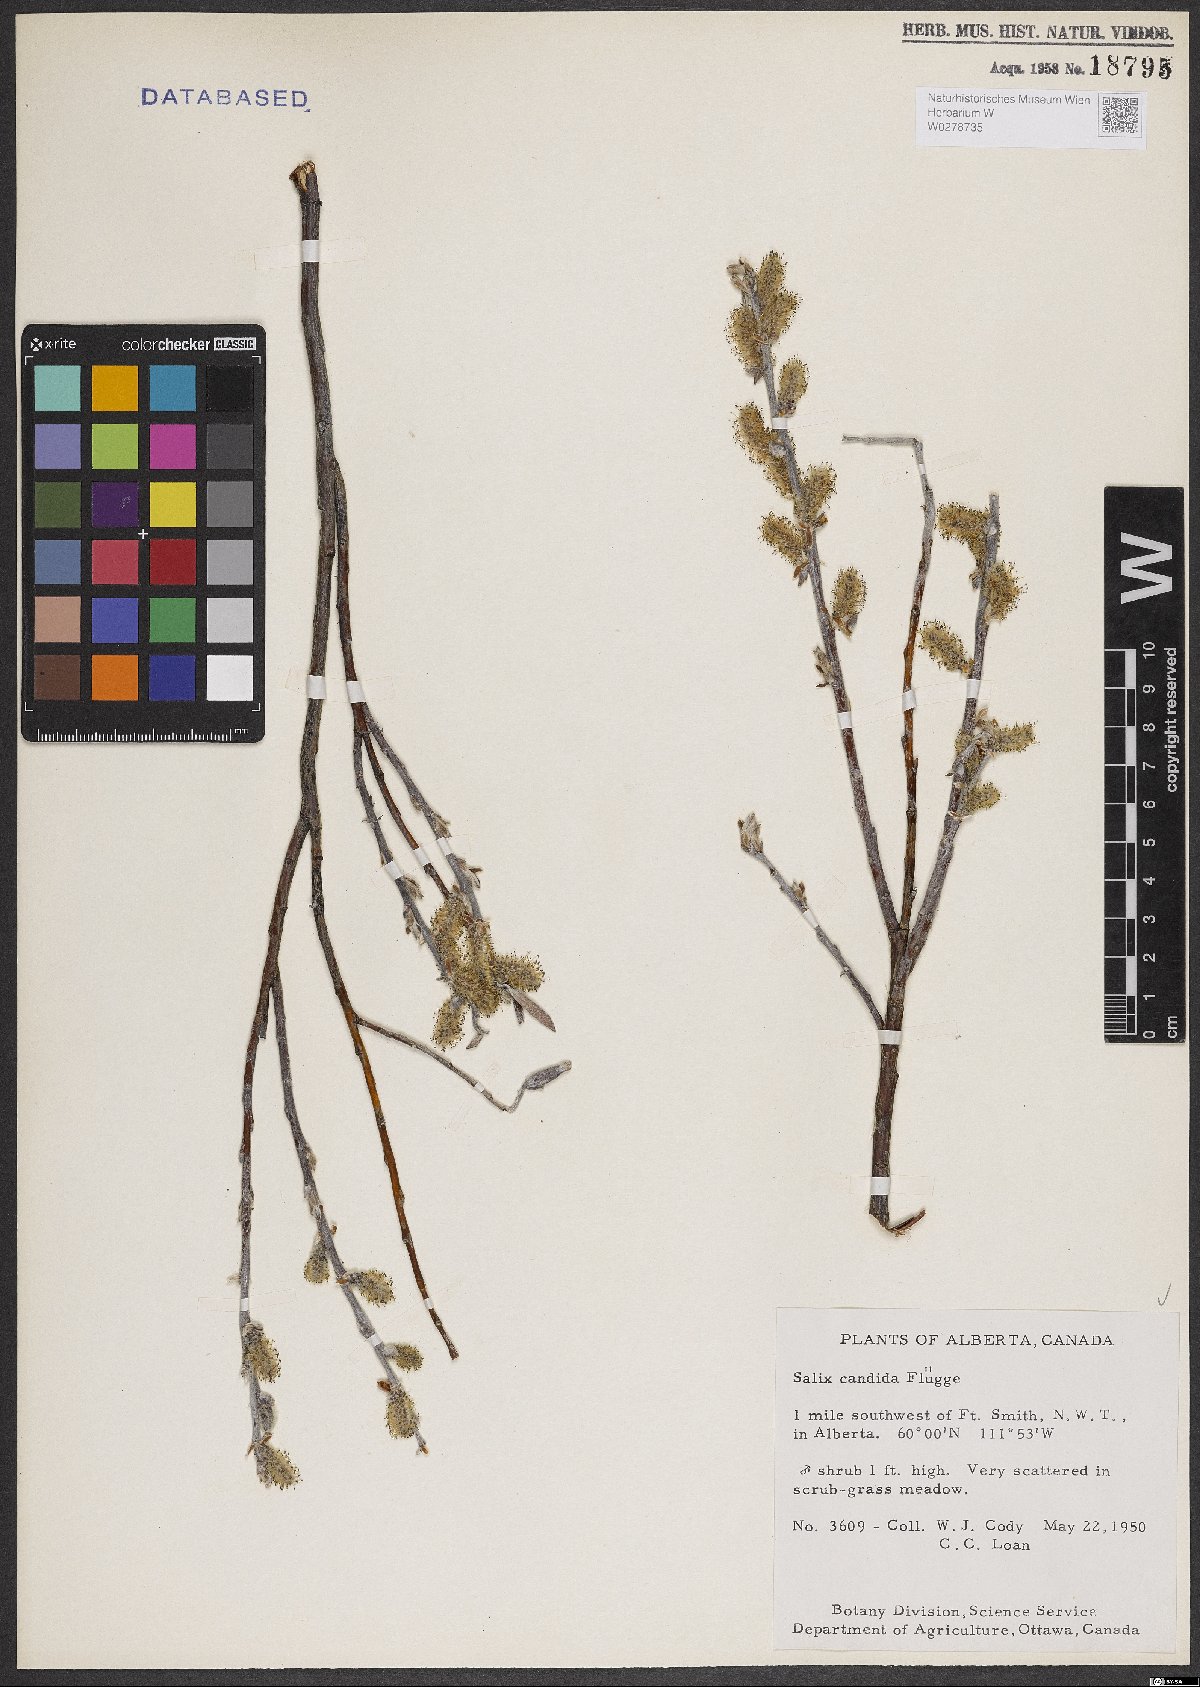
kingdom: Plantae
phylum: Tracheophyta
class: Magnoliopsida
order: Malpighiales
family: Salicaceae
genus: Salix
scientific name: Salix candida
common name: Hoary willow
